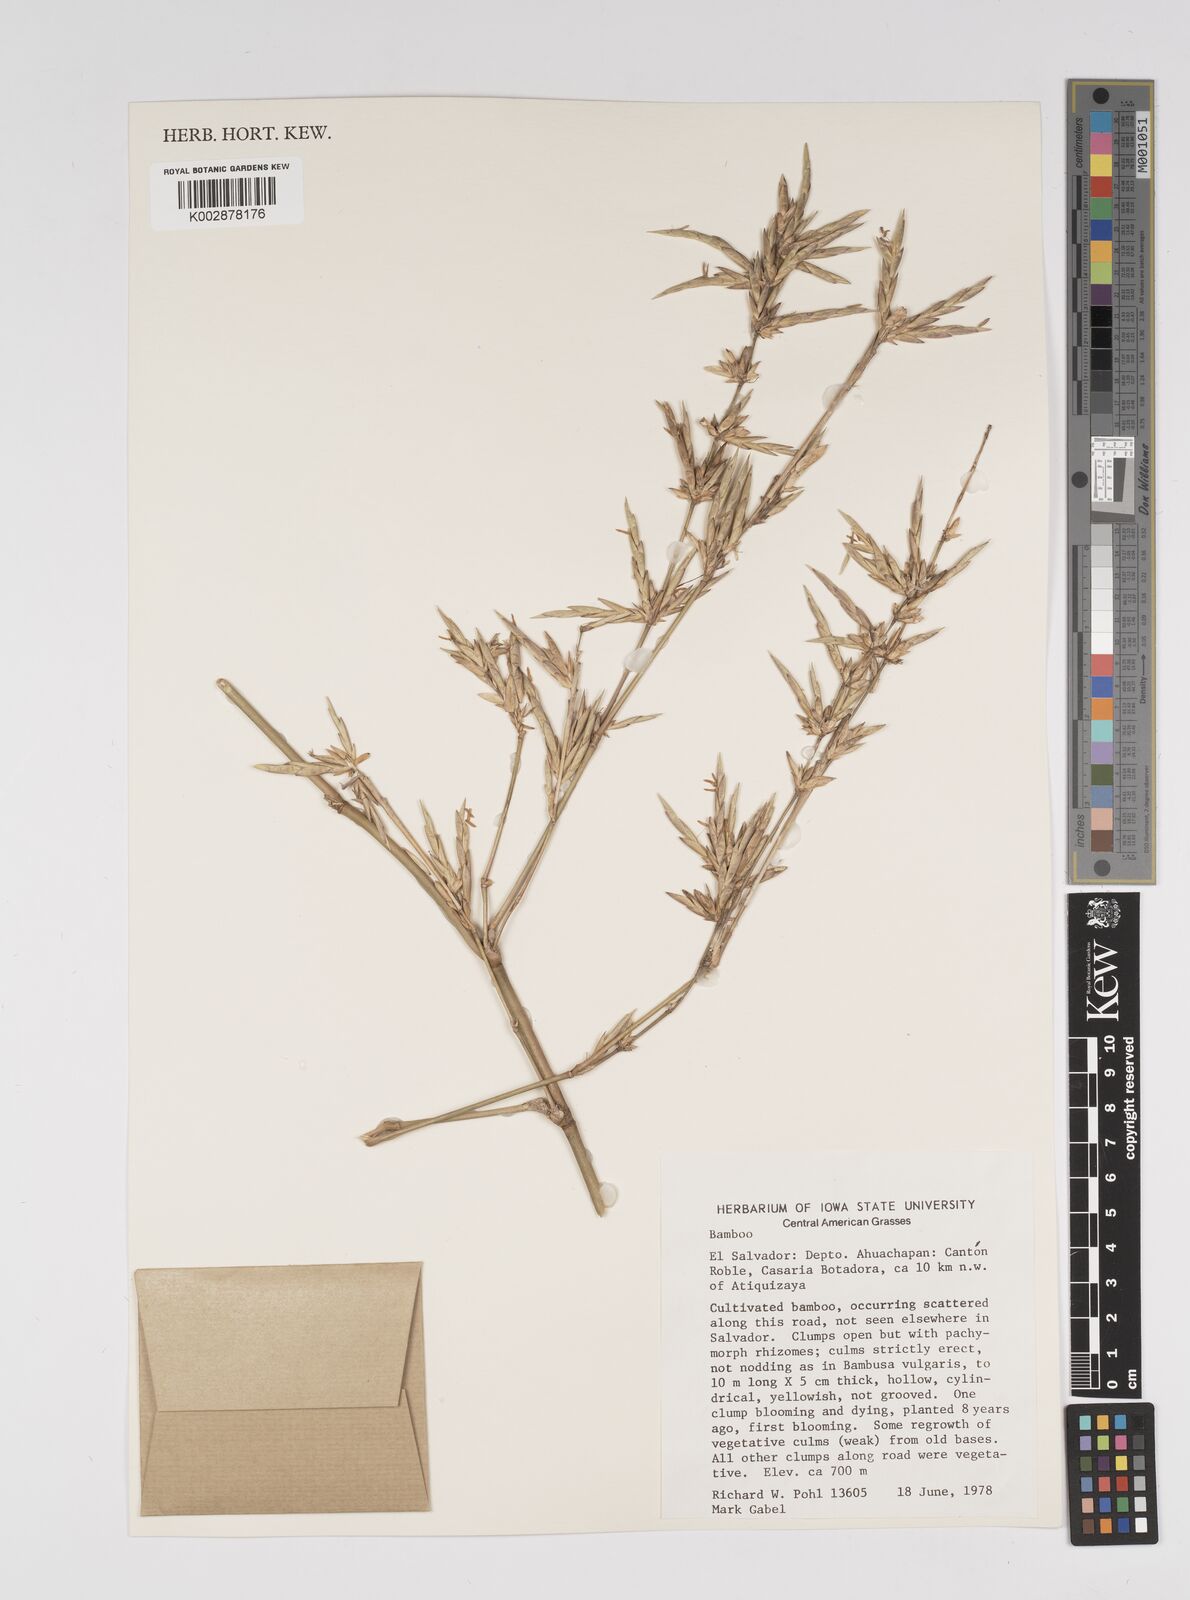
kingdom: Plantae
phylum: Tracheophyta
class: Liliopsida
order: Poales
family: Poaceae
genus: Bambusa
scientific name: Bambusa
